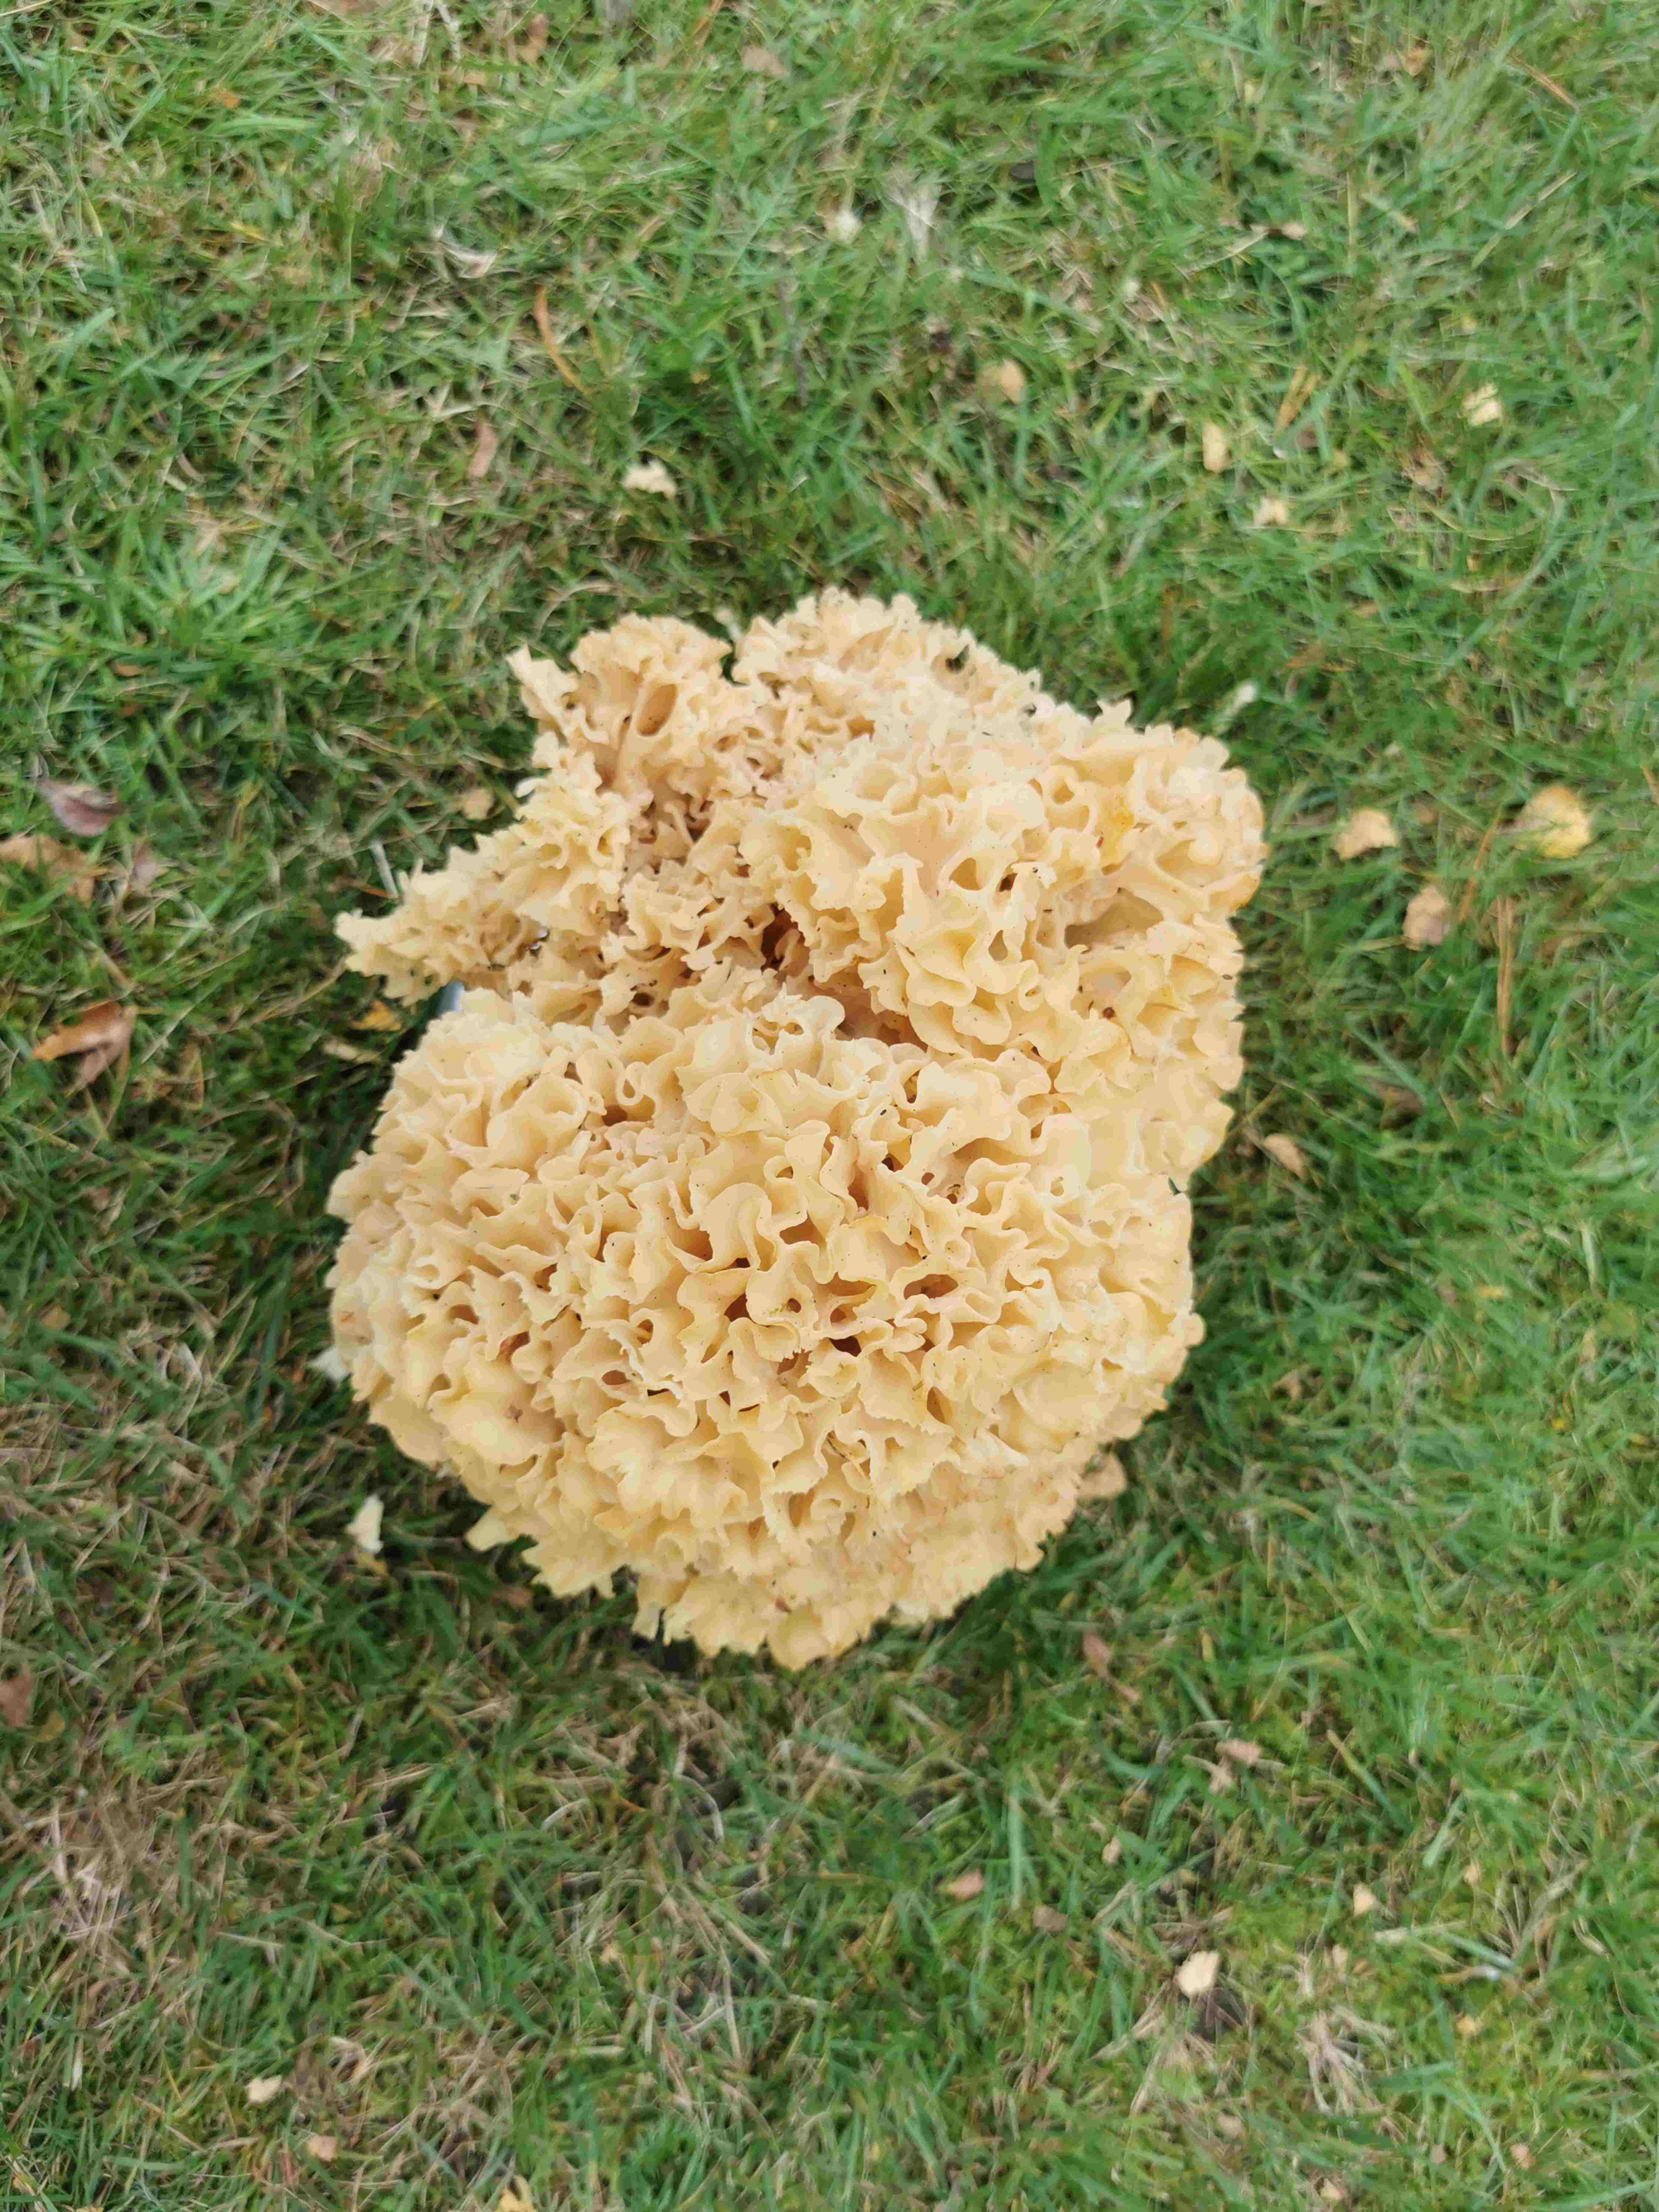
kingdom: Fungi
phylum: Basidiomycota
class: Agaricomycetes
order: Polyporales
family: Sparassidaceae
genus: Sparassis
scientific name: Sparassis crispa
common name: kruset blomkålssvamp
